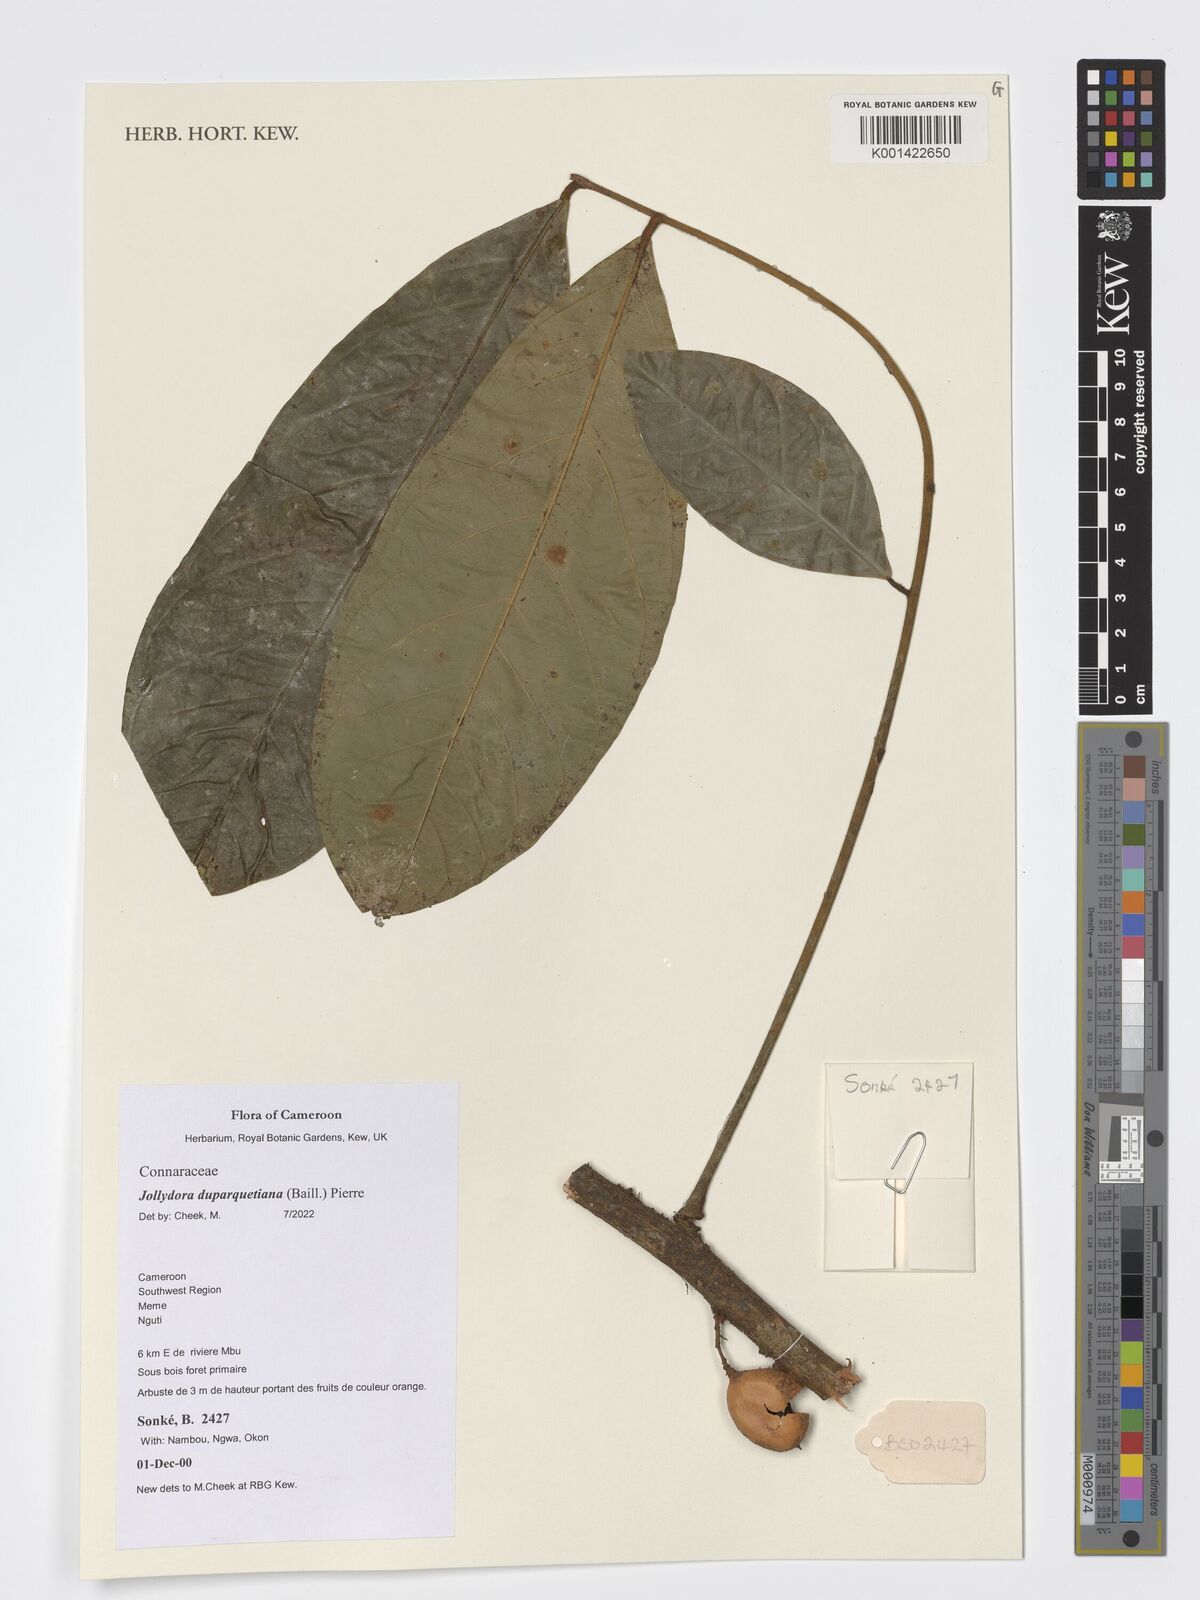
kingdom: Plantae
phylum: Tracheophyta
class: Magnoliopsida
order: Oxalidales
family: Connaraceae
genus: Jollydora
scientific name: Jollydora duparquetiana
